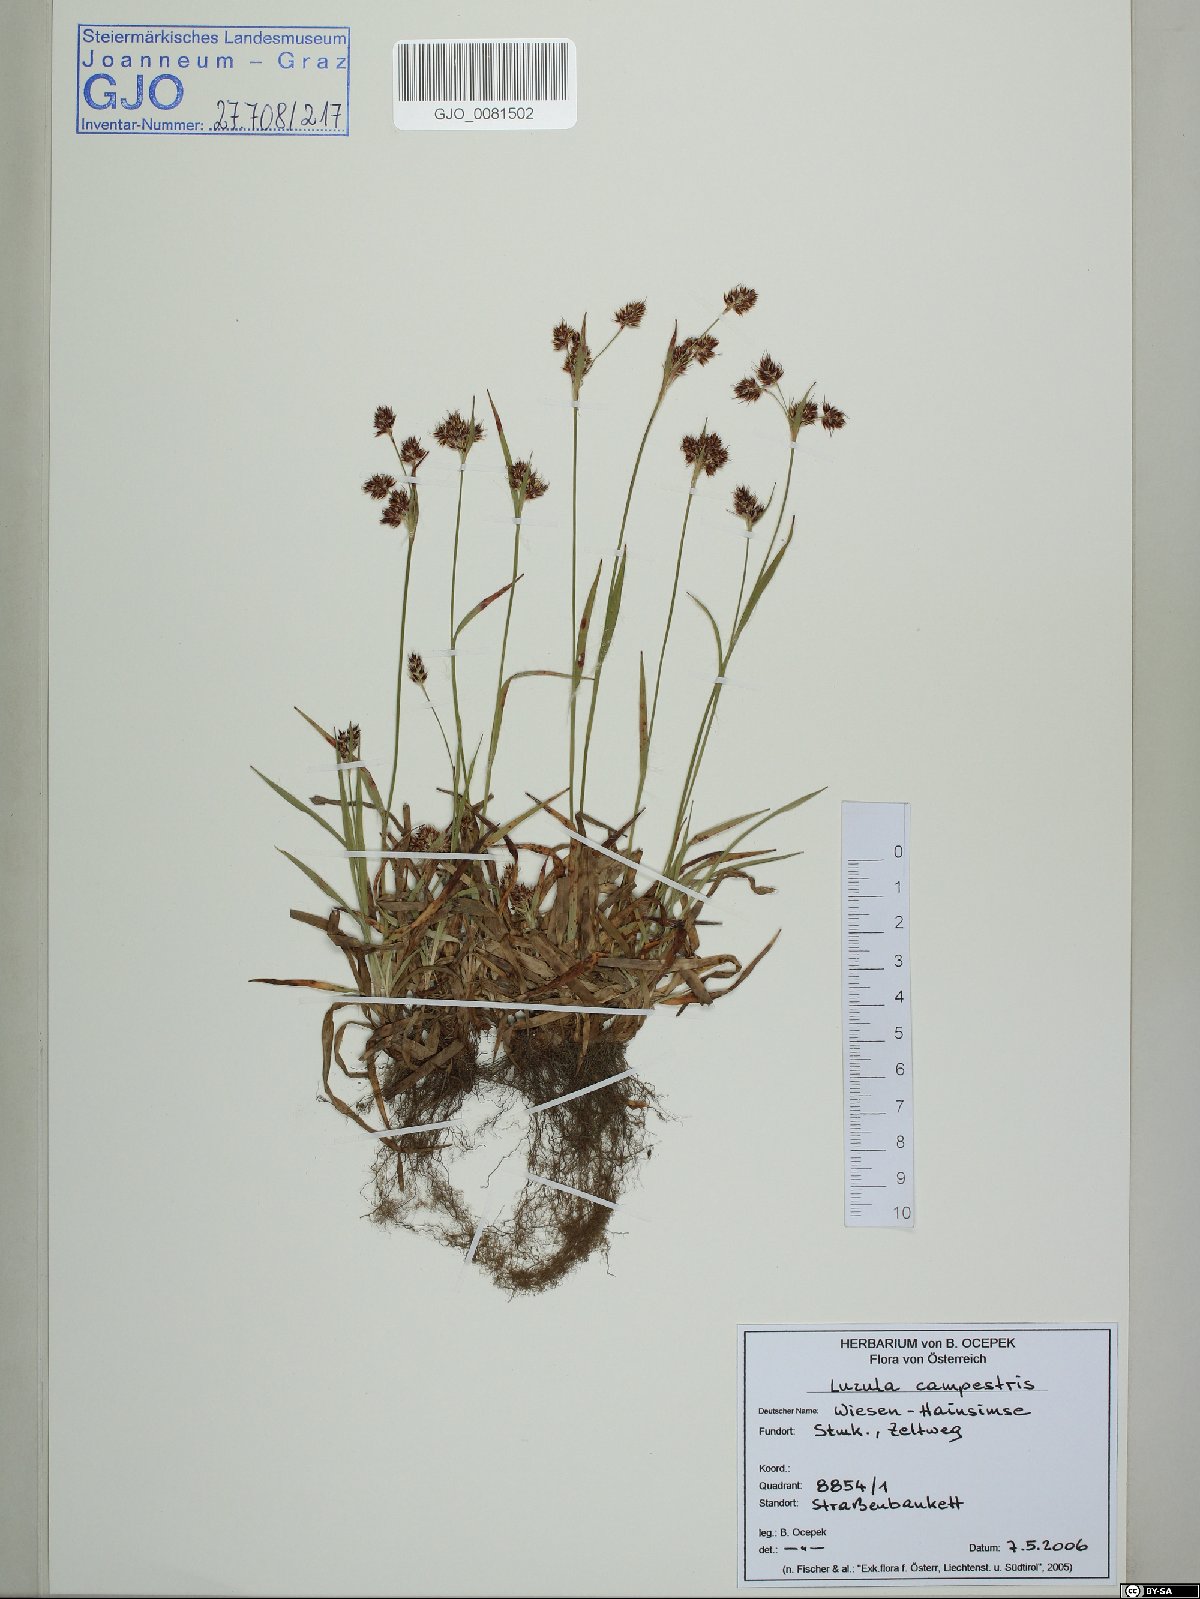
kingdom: Plantae
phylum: Tracheophyta
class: Liliopsida
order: Poales
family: Juncaceae
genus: Luzula
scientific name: Luzula campestris
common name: Field wood-rush
